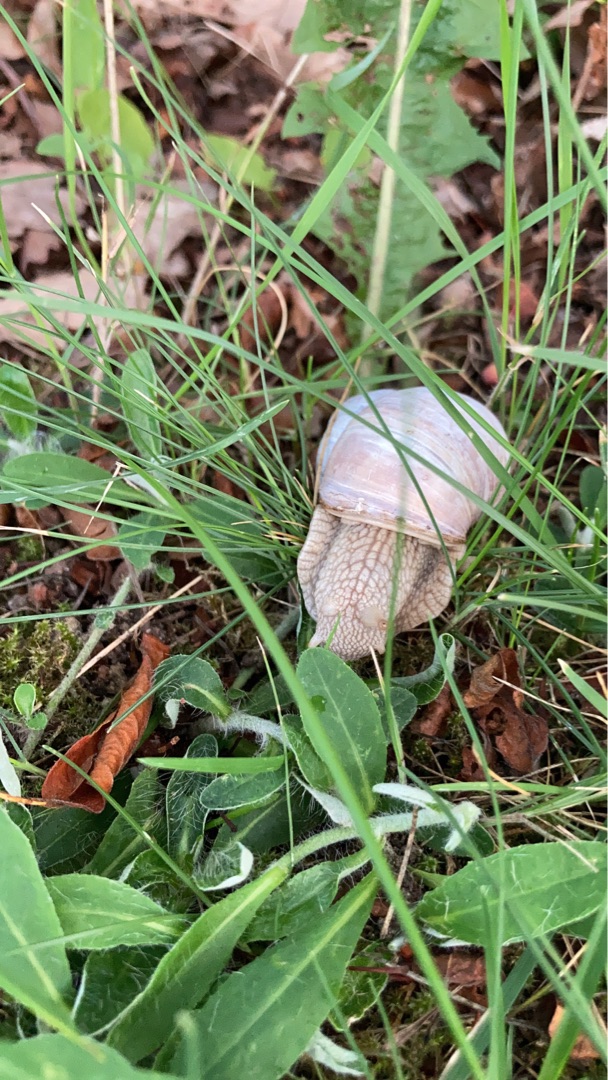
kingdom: Animalia
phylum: Mollusca
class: Gastropoda
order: Stylommatophora
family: Helicidae
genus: Helix
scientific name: Helix pomatia
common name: Vinbjergsnegl
